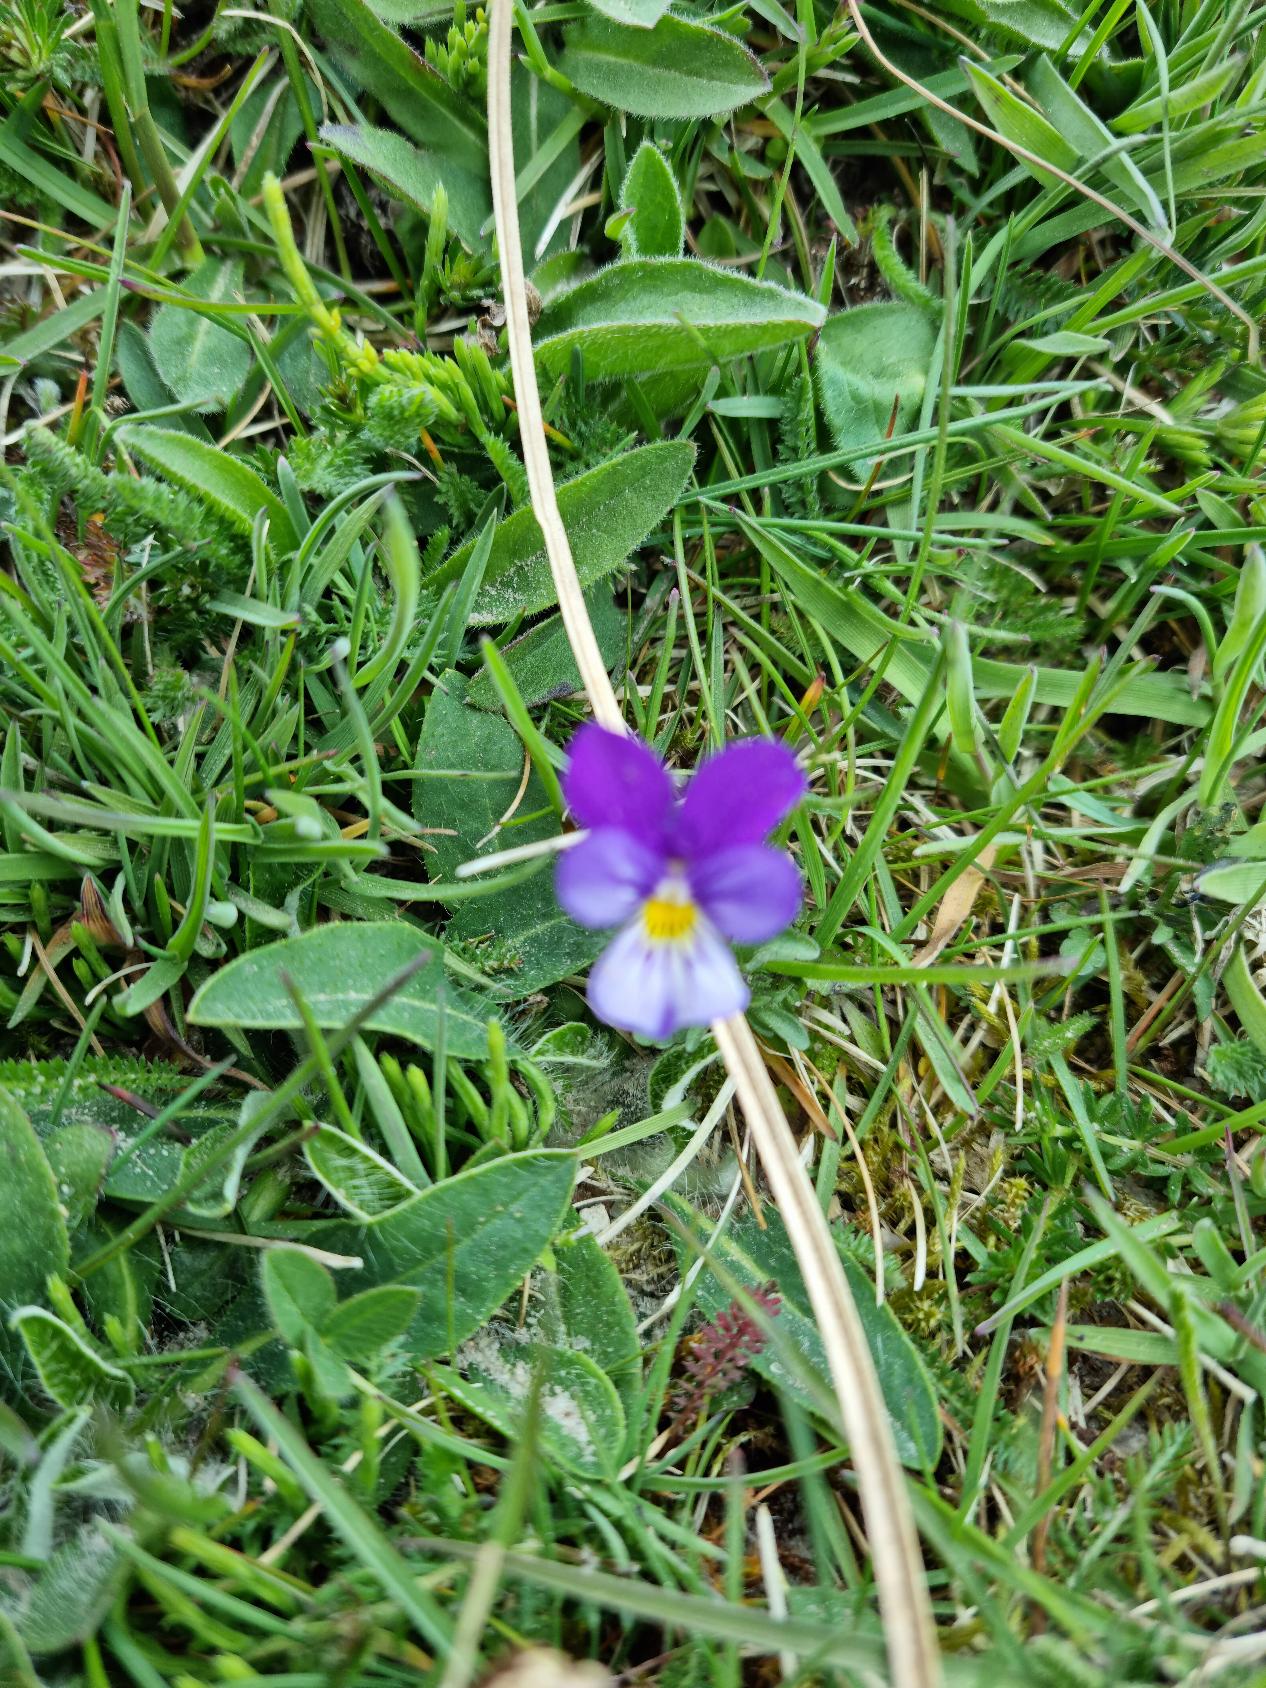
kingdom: Plantae
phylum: Tracheophyta
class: Magnoliopsida
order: Malpighiales
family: Violaceae
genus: Viola
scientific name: Viola tricolor
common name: Stedmoderblomst
